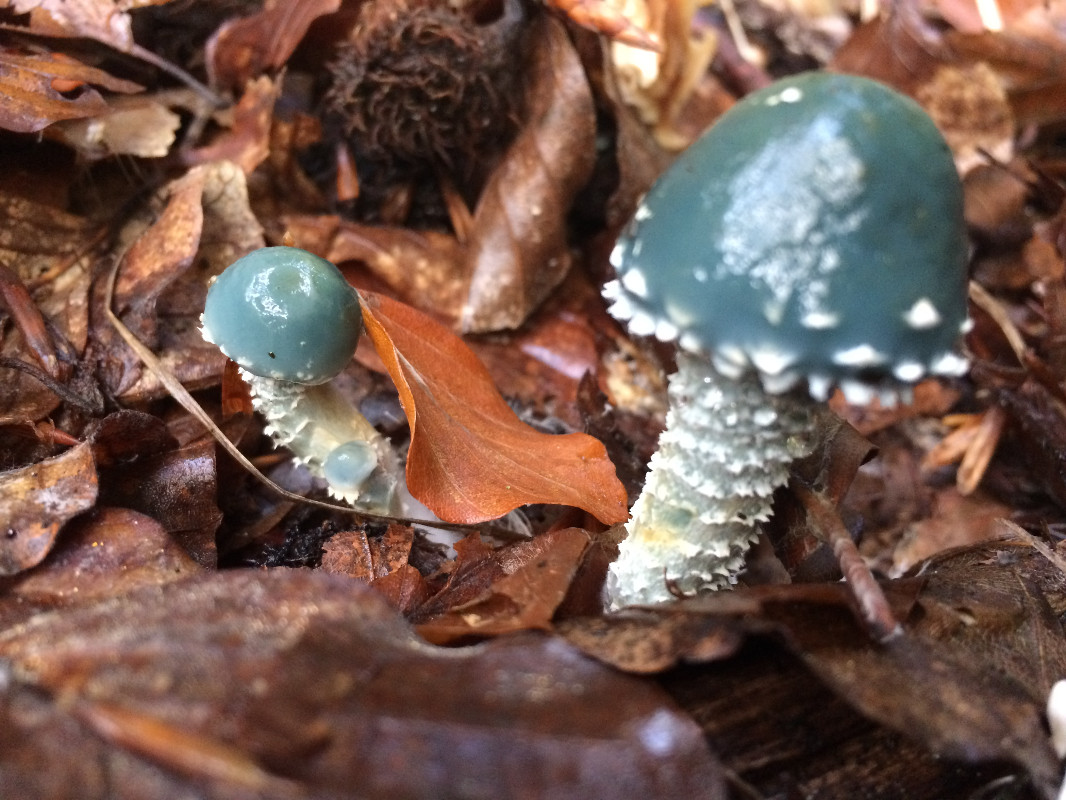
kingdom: Fungi
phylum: Basidiomycota
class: Agaricomycetes
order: Agaricales
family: Strophariaceae
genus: Stropharia
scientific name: Stropharia aeruginosa
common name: spanskgrøn bredblad
